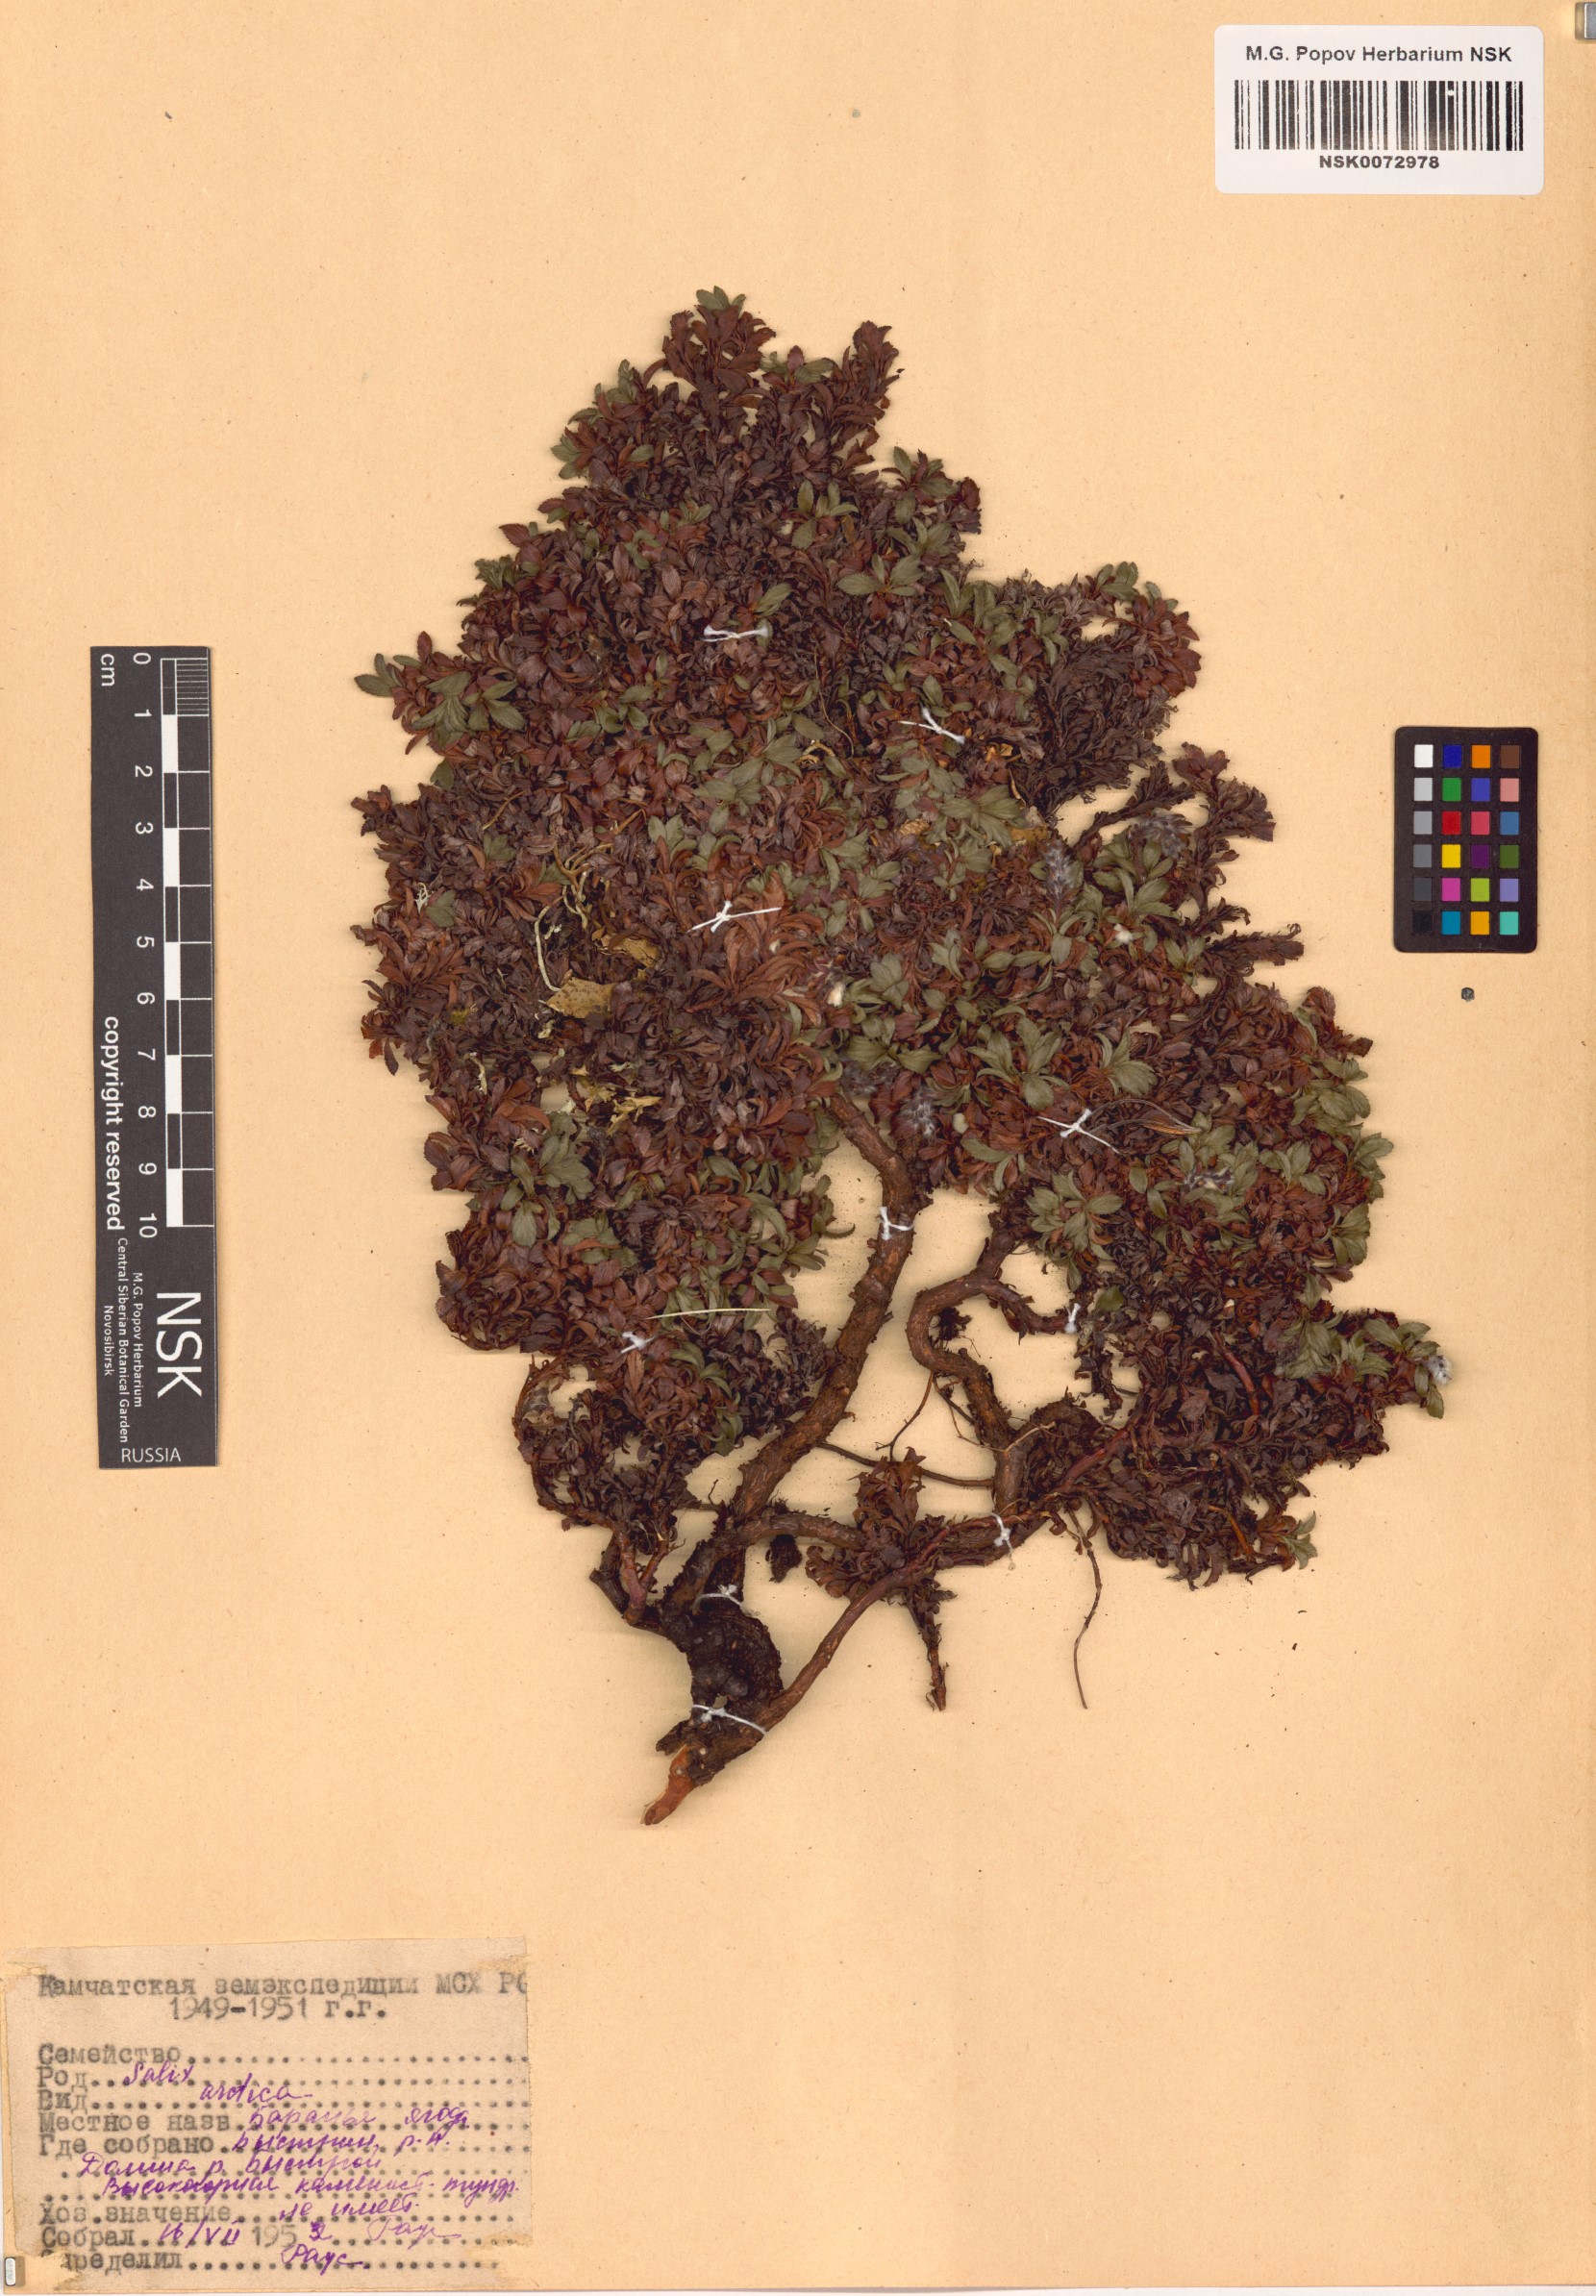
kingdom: Plantae
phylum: Tracheophyta
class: Magnoliopsida
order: Malpighiales
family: Salicaceae
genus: Salix
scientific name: Salix arctica
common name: Arctic willow
